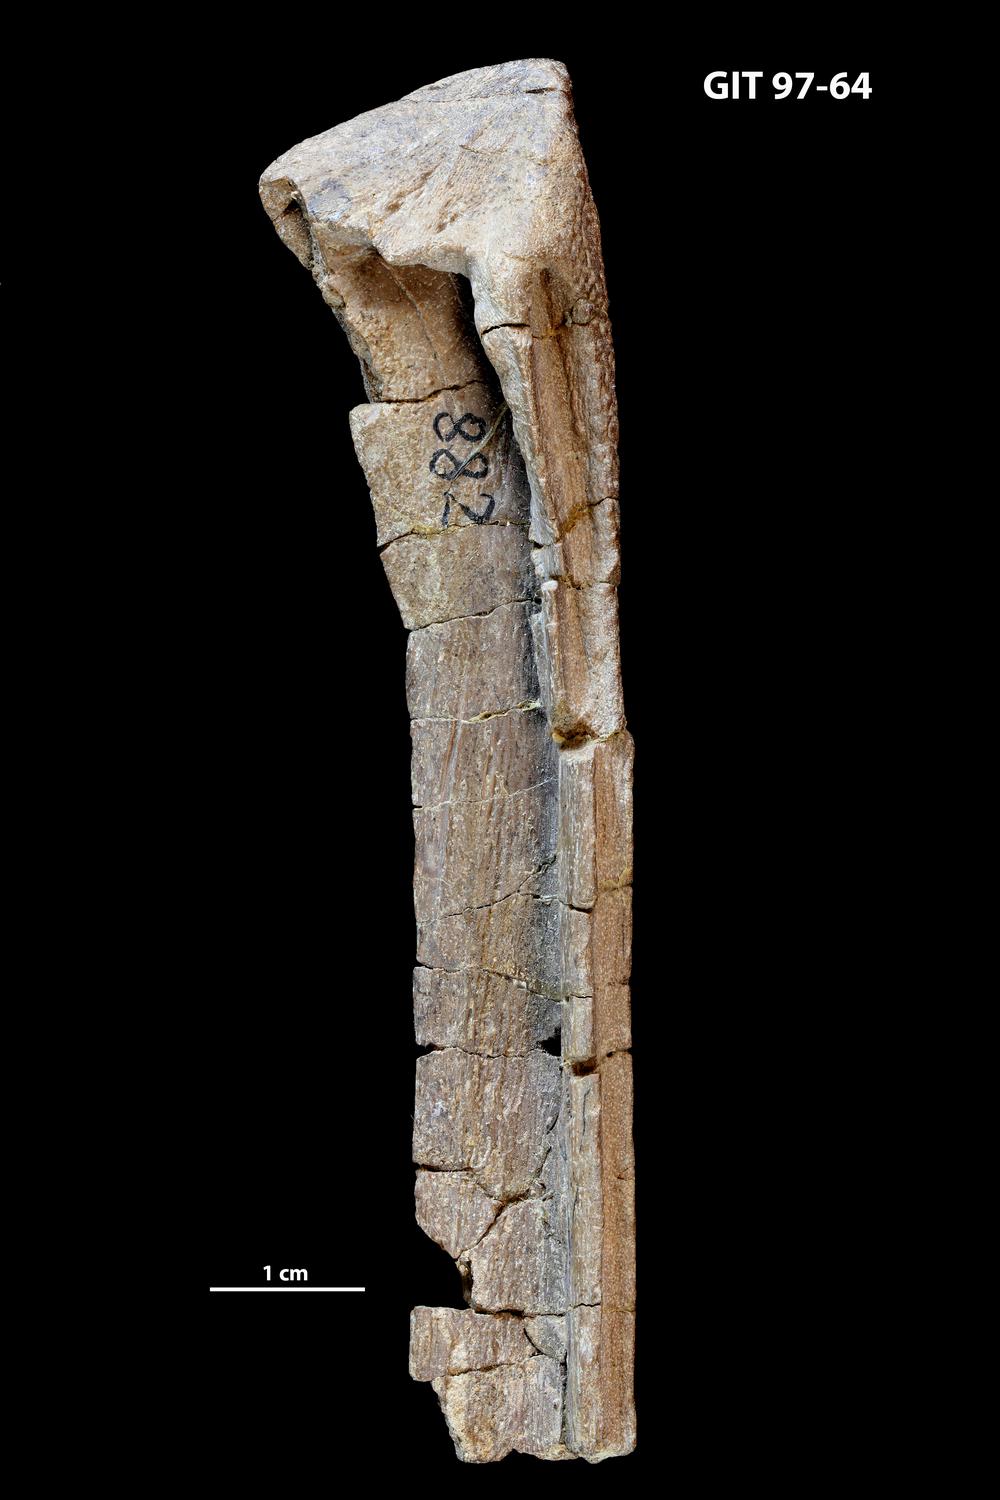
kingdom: Animalia
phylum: Chordata
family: Holonematidae
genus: Holonema
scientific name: Holonema
